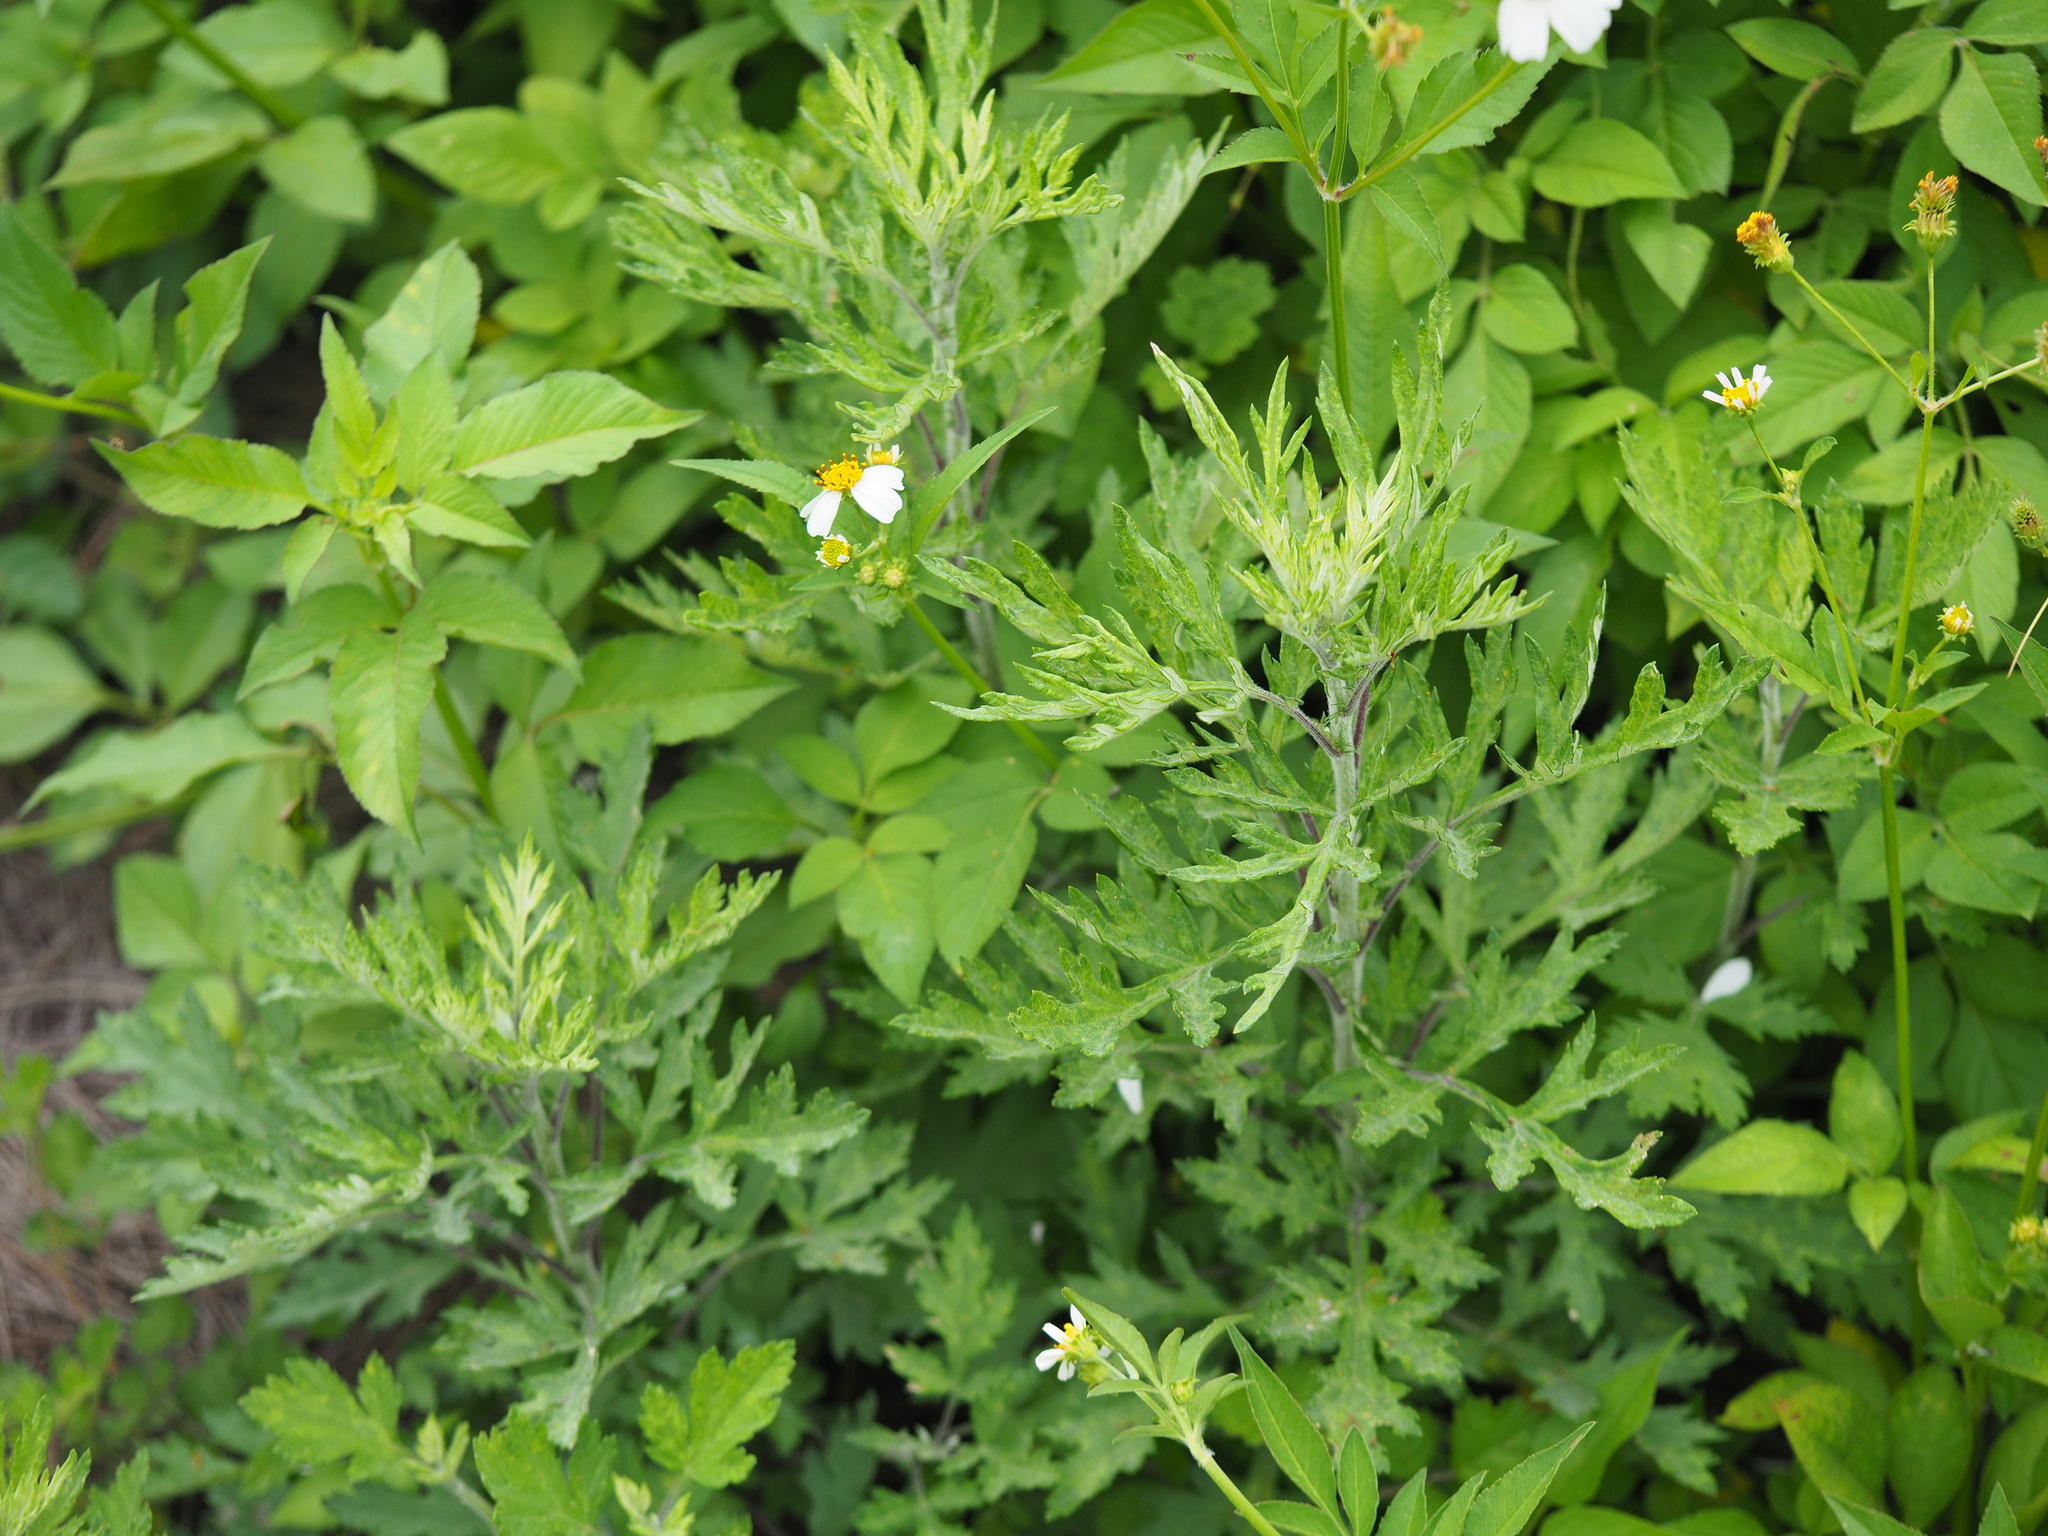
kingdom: Plantae
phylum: Tracheophyta
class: Magnoliopsida
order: Asterales
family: Asteraceae
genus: Artemisia
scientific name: Artemisia indica
